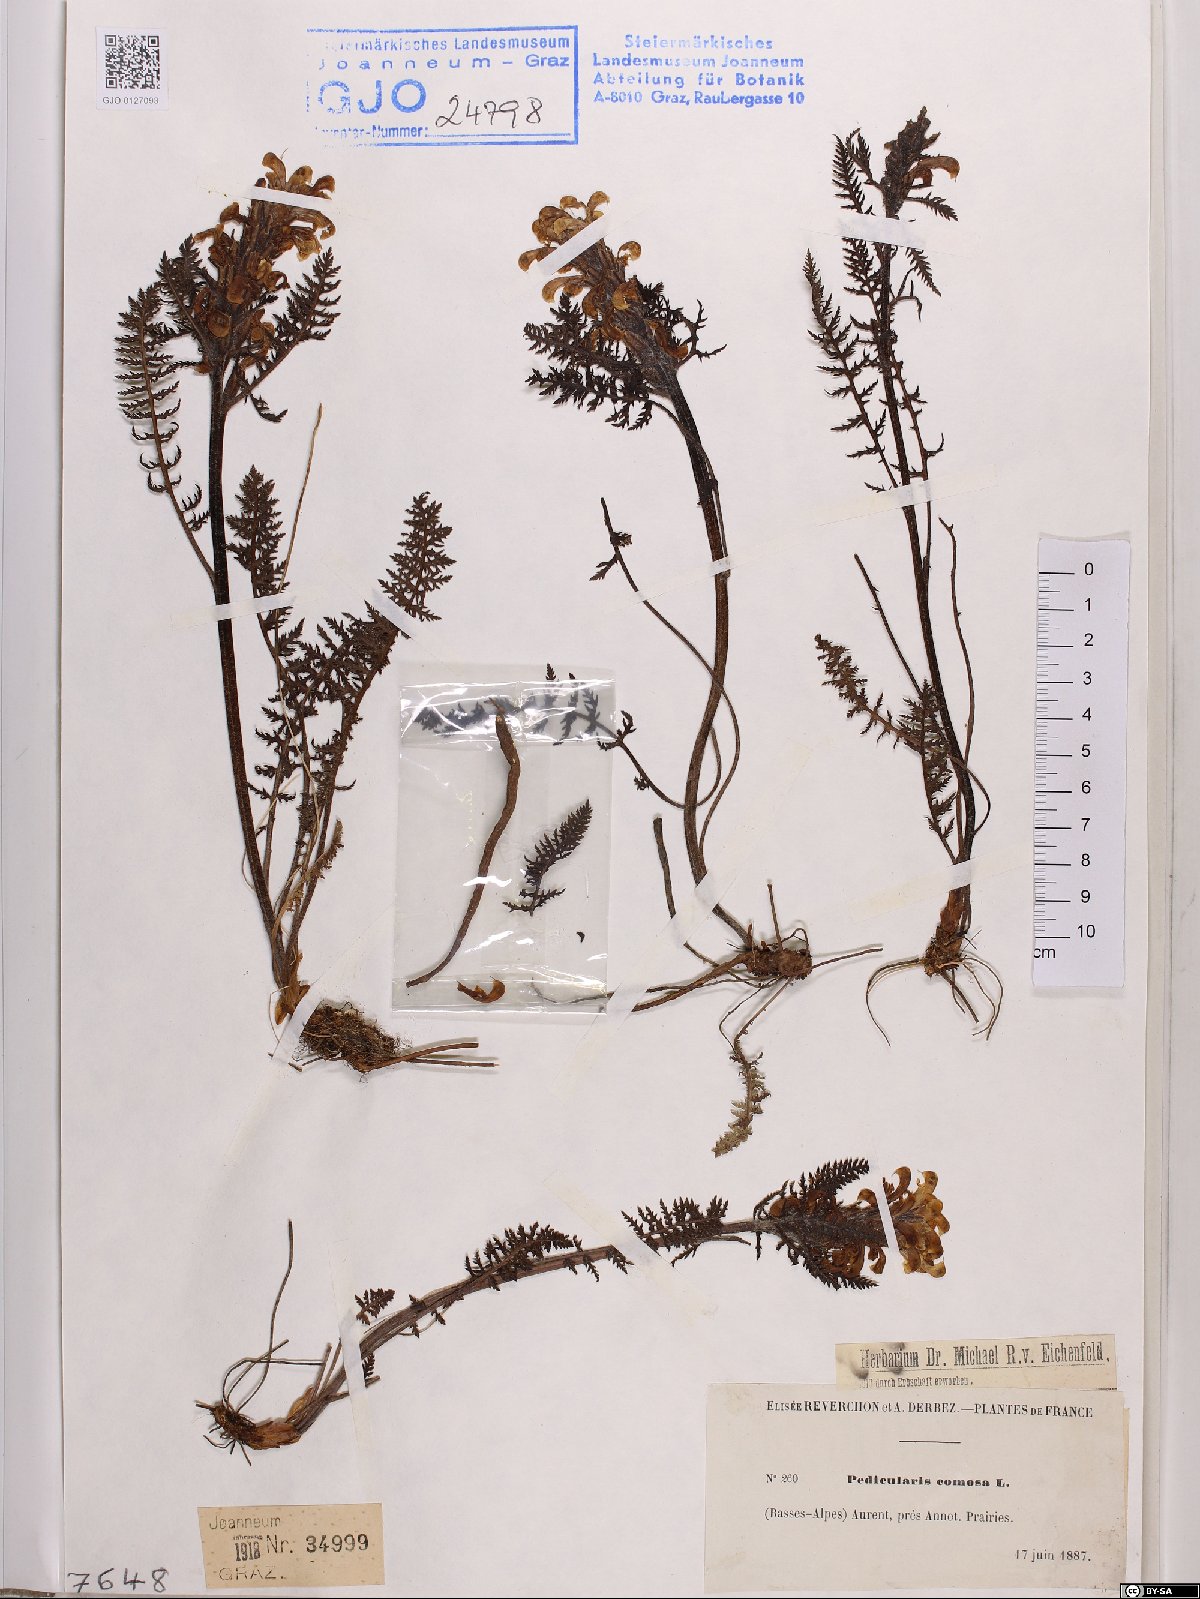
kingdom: Plantae
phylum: Tracheophyta
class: Magnoliopsida
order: Lamiales
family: Orobanchaceae
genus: Pedicularis
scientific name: Pedicularis comosa
